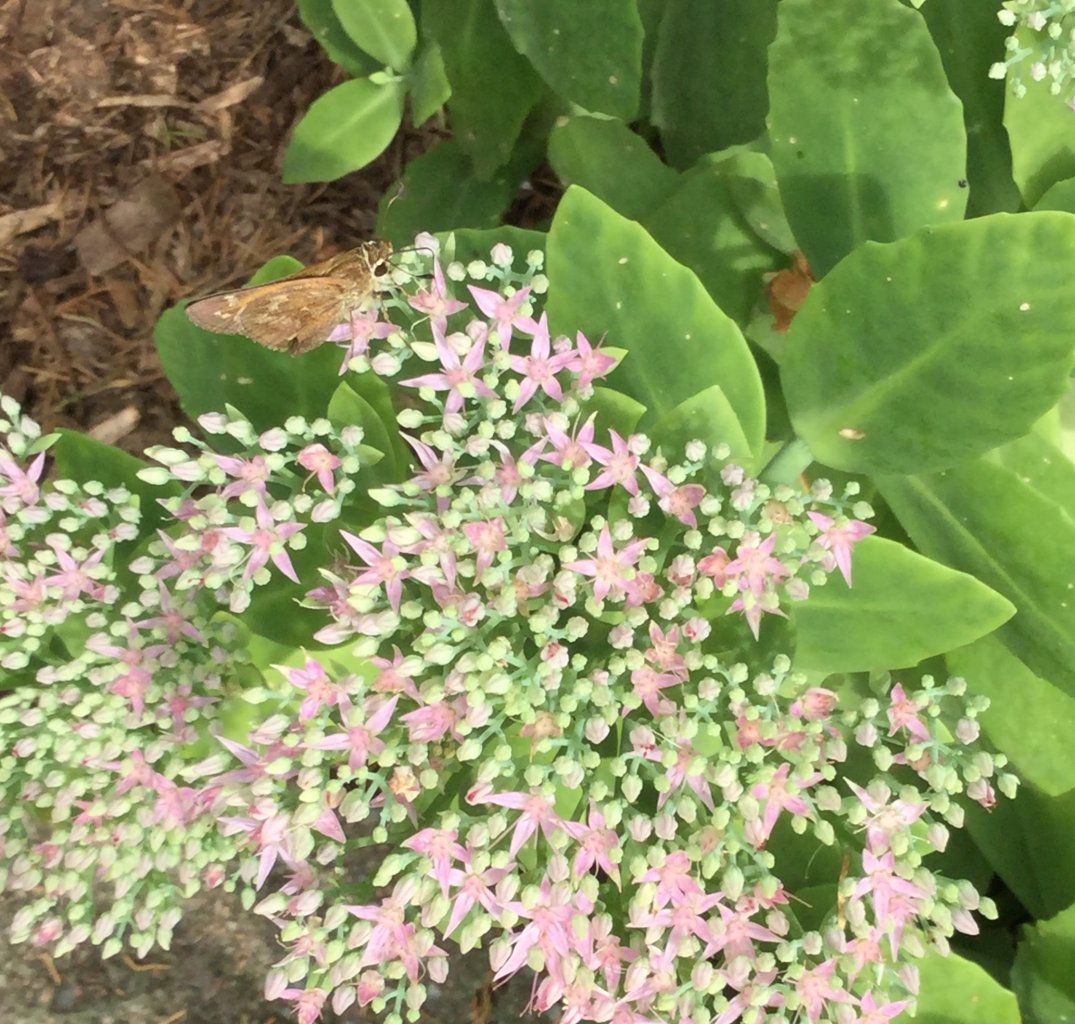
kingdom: Animalia
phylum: Arthropoda
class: Insecta
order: Lepidoptera
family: Hesperiidae
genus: Atalopedes
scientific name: Atalopedes campestris
